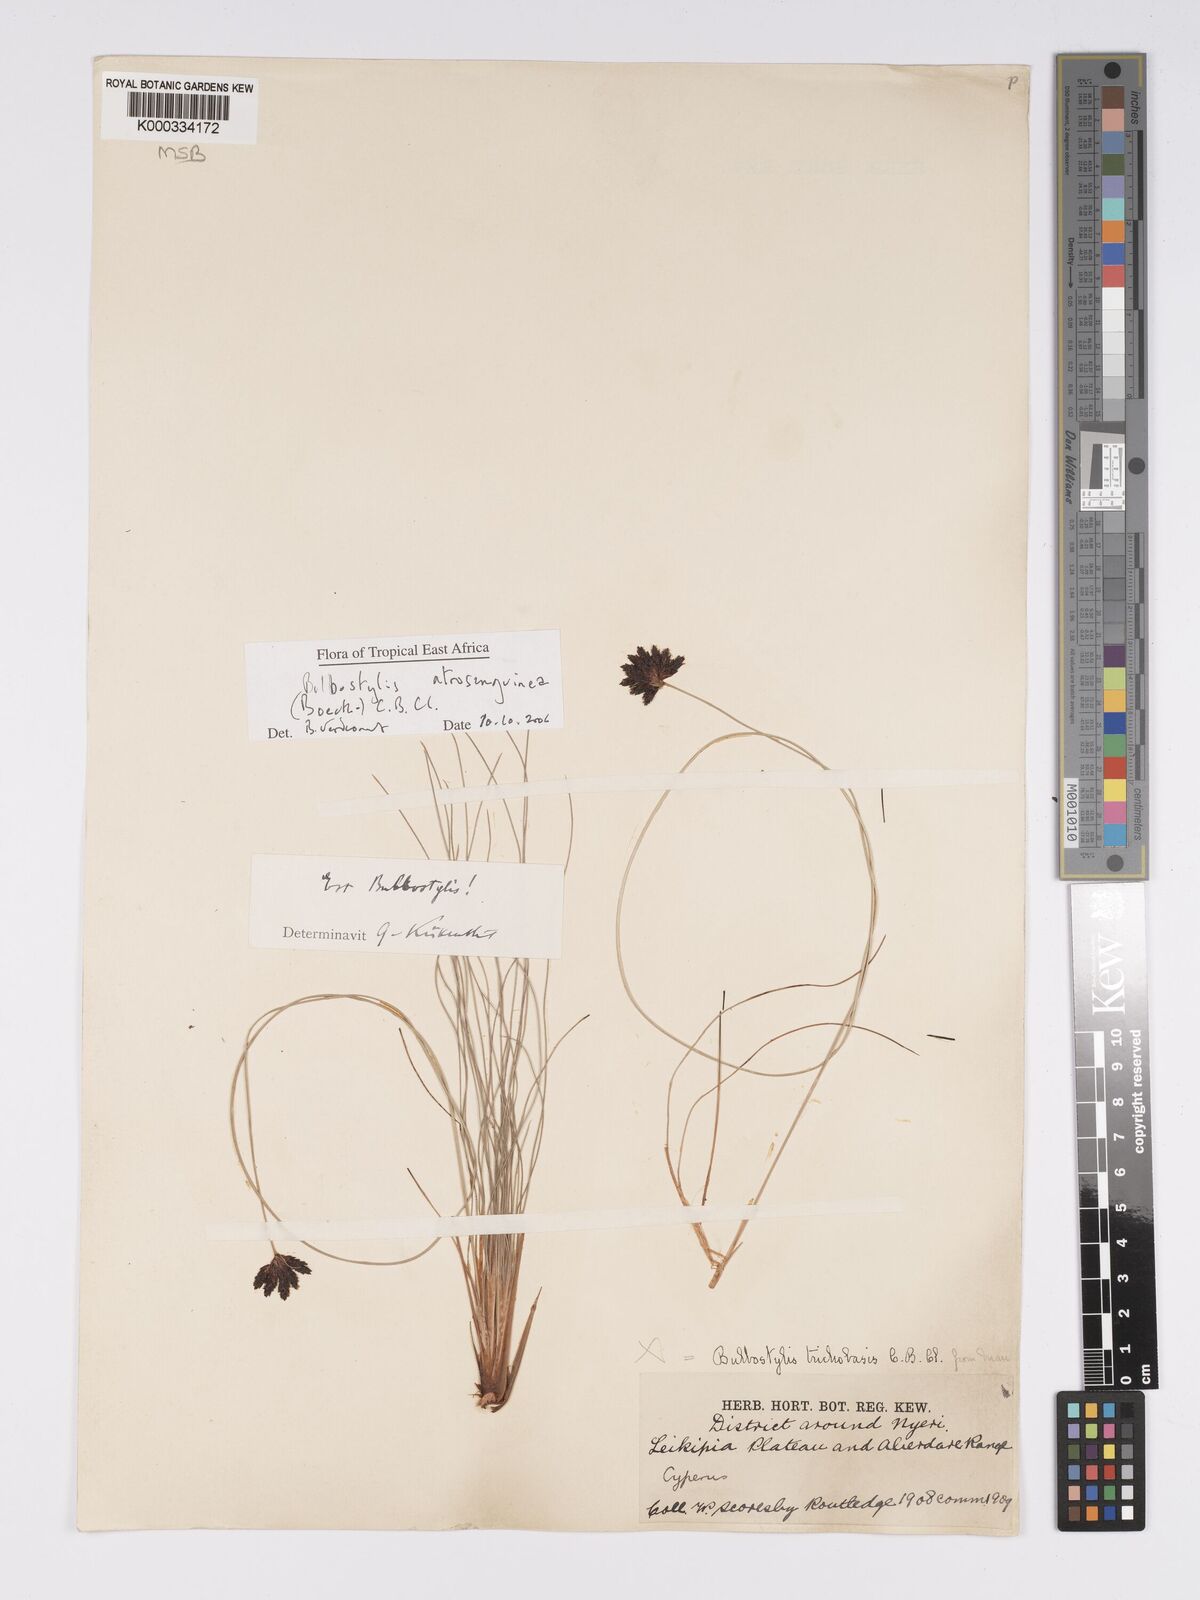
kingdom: Plantae
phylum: Tracheophyta
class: Liliopsida
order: Poales
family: Cyperaceae
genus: Bulbostylis
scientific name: Bulbostylis atrosanguinea
